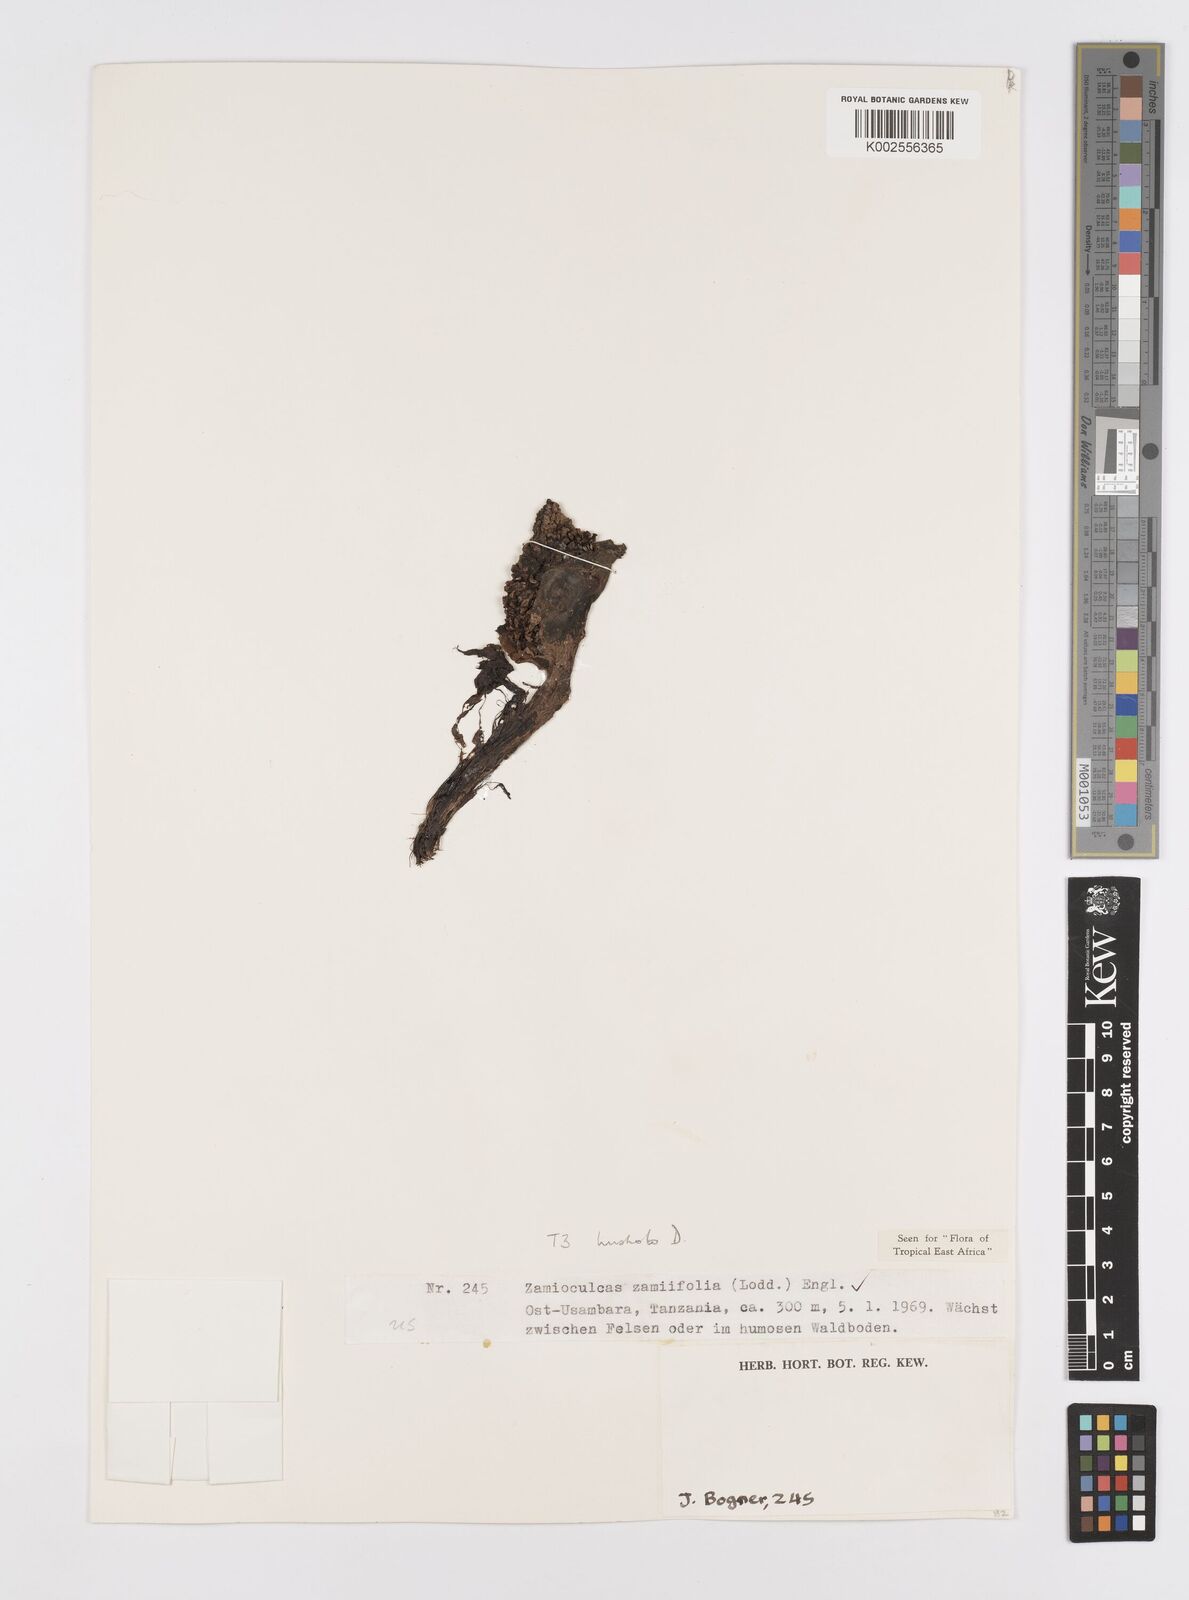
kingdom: Plantae
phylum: Tracheophyta
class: Liliopsida
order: Alismatales
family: Araceae
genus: Zamioculcas
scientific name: Zamioculcas zamiifolia
